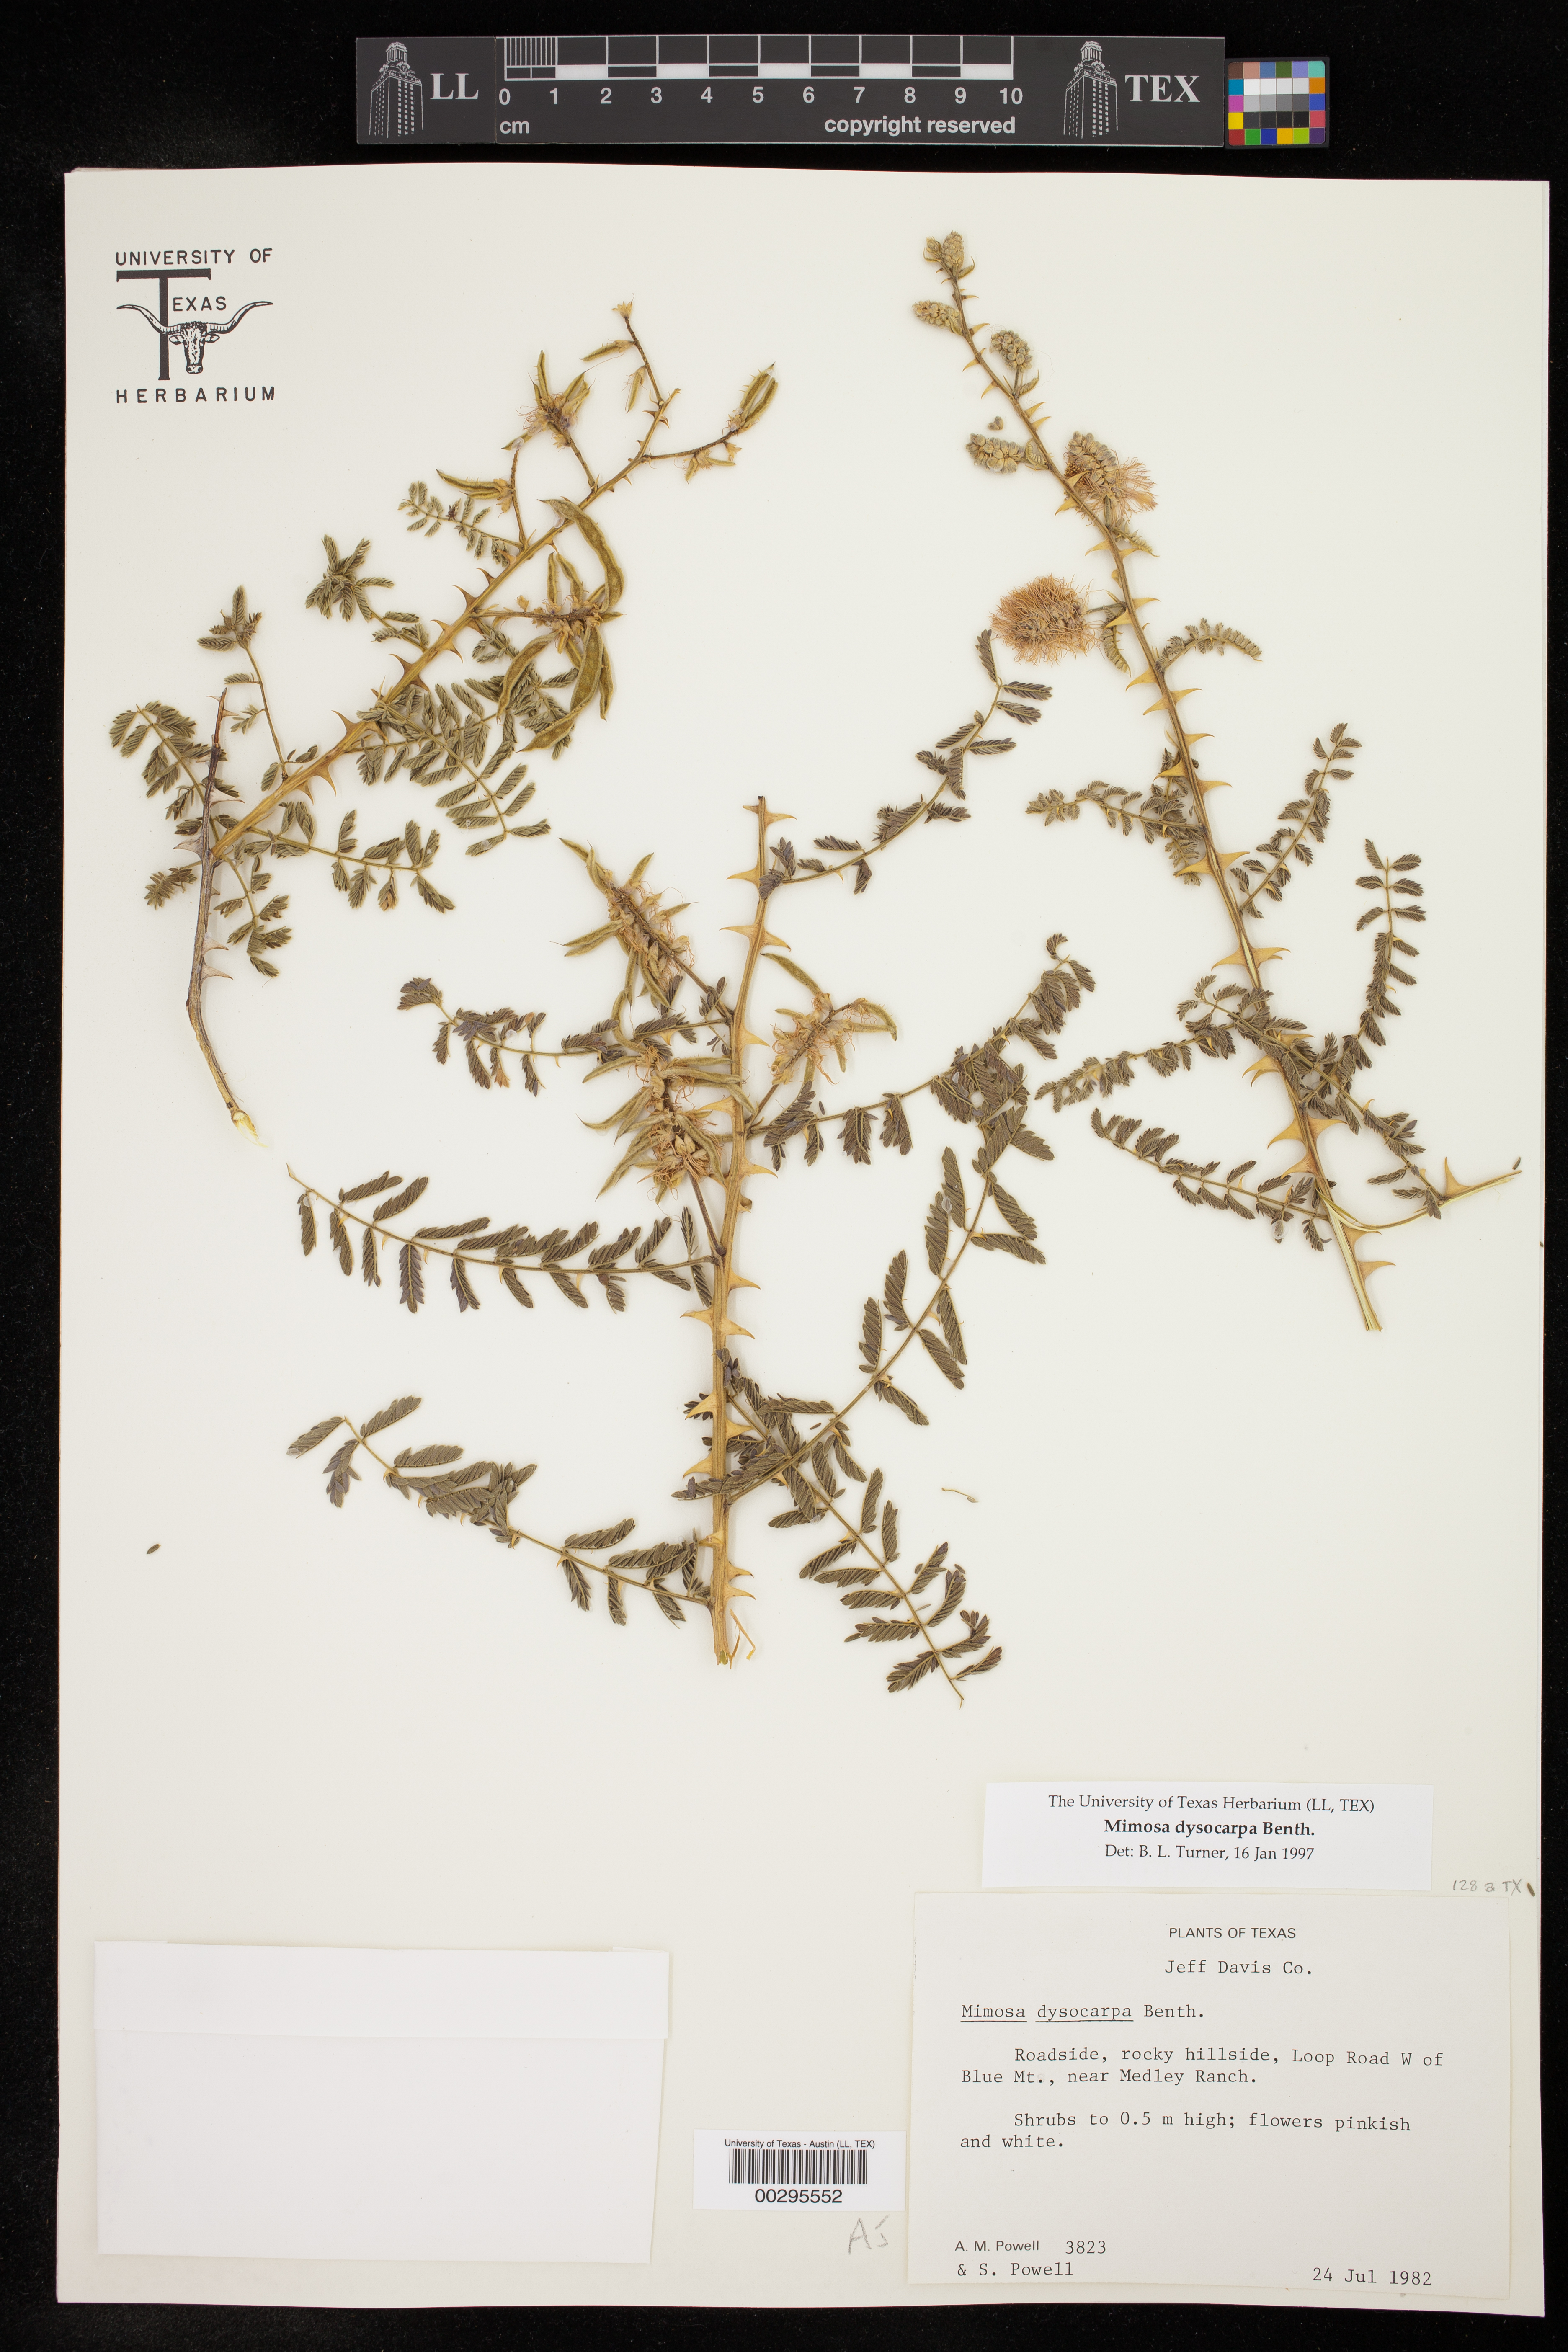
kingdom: Plantae
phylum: Tracheophyta
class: Magnoliopsida
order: Fabales
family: Fabaceae
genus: Mimosa
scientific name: Mimosa dysocarpa
